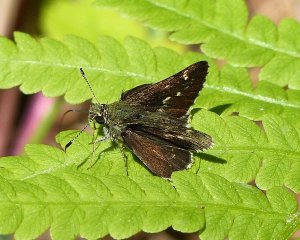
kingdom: Animalia
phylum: Arthropoda
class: Insecta
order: Lepidoptera
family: Hesperiidae
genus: Mastor
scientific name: Mastor hegon
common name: Pepper and Salt Skipper
